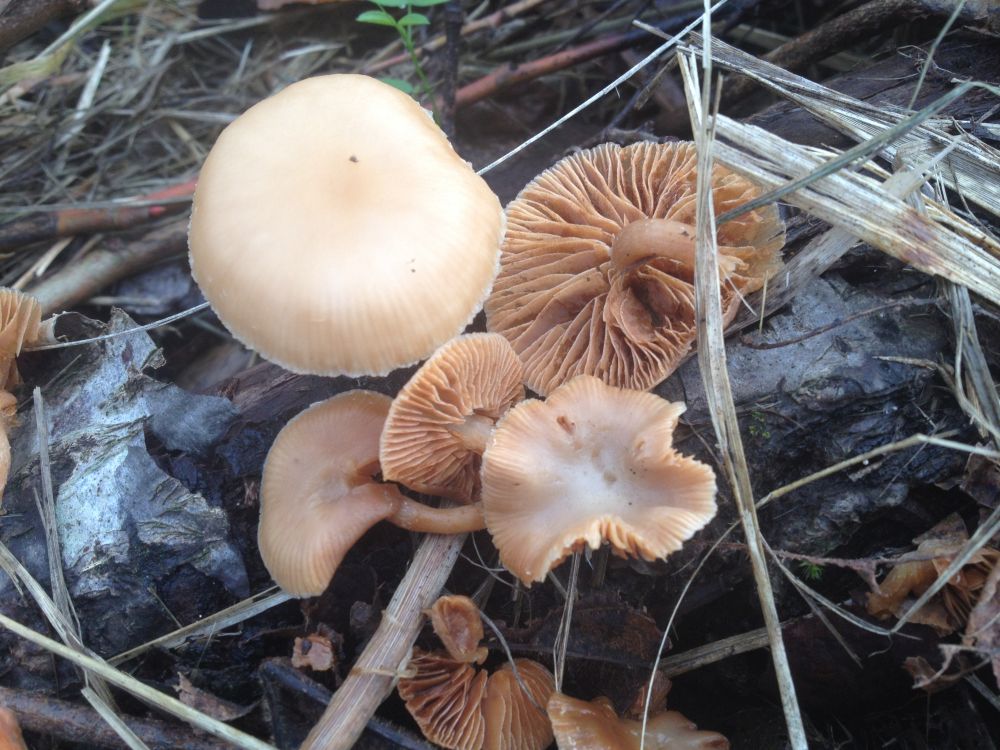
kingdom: Fungi
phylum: Basidiomycota
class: Agaricomycetes
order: Agaricales
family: Tubariaceae
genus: Tubaria
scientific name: Tubaria furfuracea
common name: kliddet fnughat
